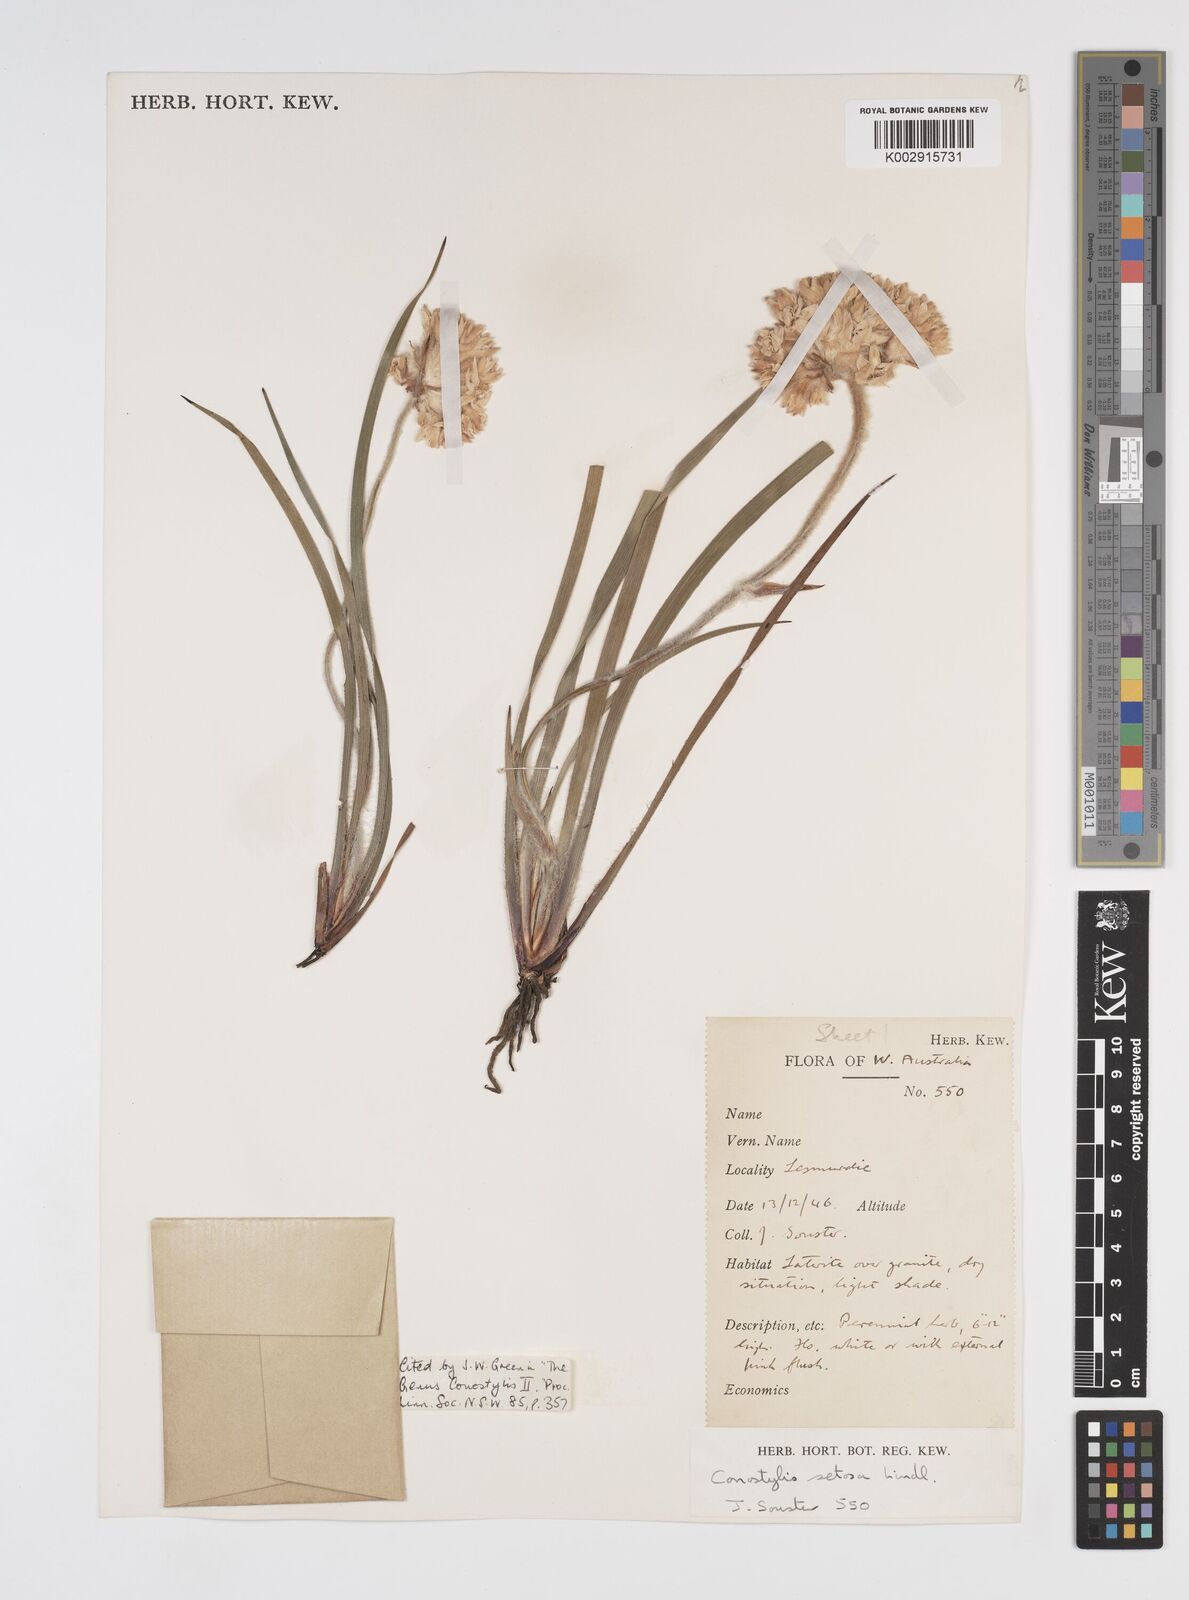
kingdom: Plantae
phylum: Tracheophyta
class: Liliopsida
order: Commelinales
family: Haemodoraceae
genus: Conostylis
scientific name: Conostylis setosa
